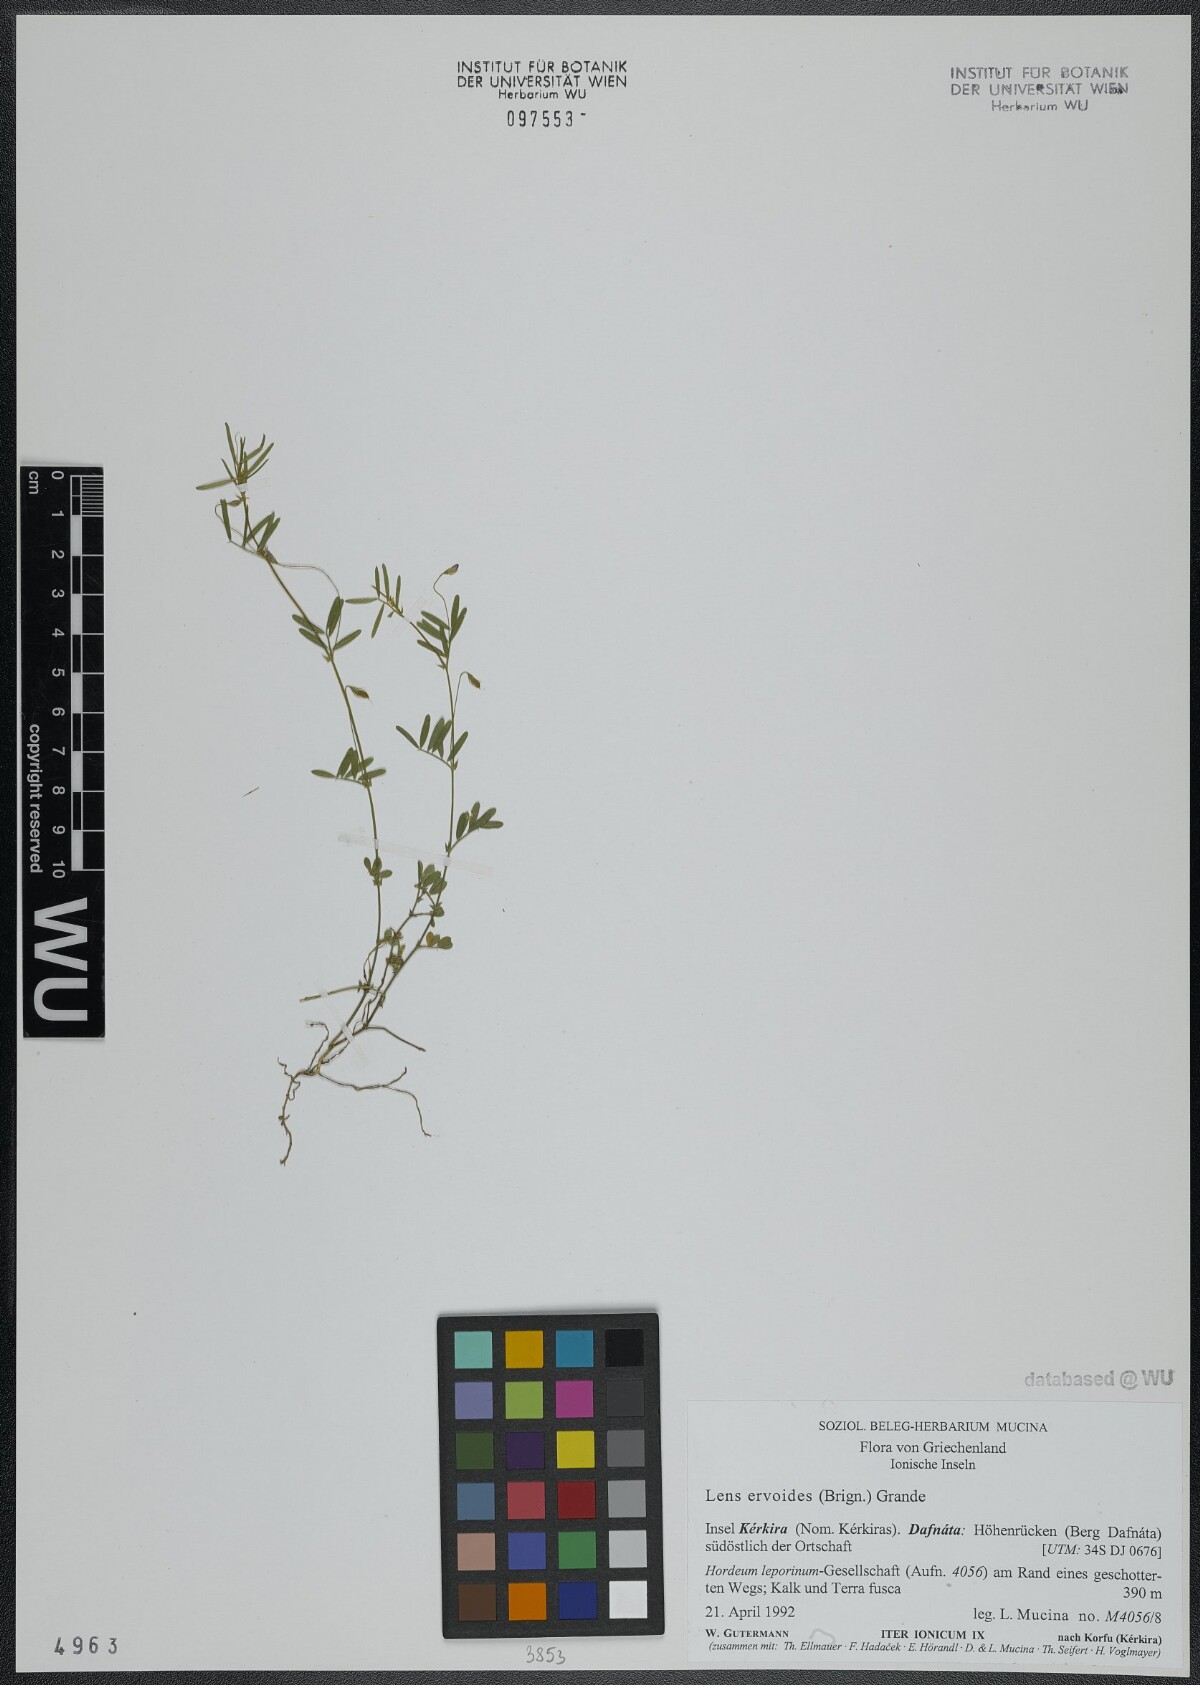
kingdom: Plantae
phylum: Tracheophyta
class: Magnoliopsida
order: Fabales
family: Fabaceae
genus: Vicia
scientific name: Vicia lenticula
